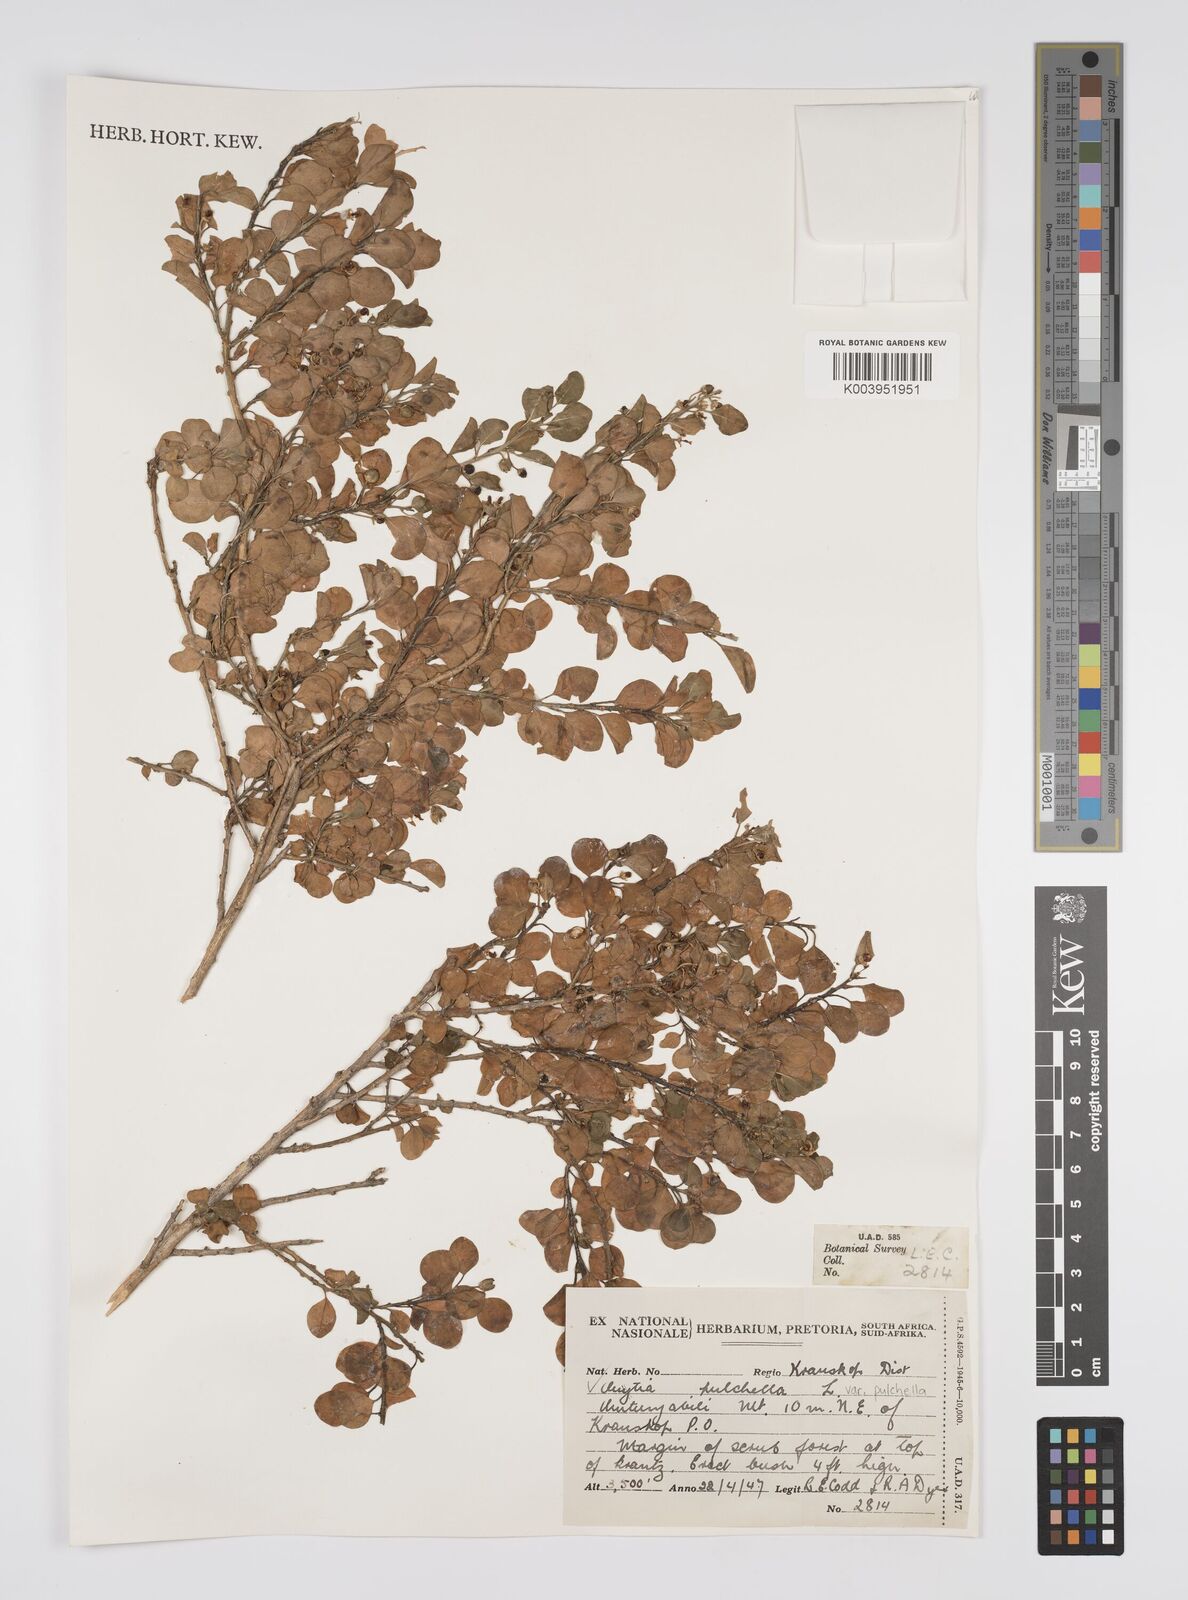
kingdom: Plantae
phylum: Tracheophyta
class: Magnoliopsida
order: Malpighiales
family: Peraceae
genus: Clutia
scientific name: Clutia pulchella
